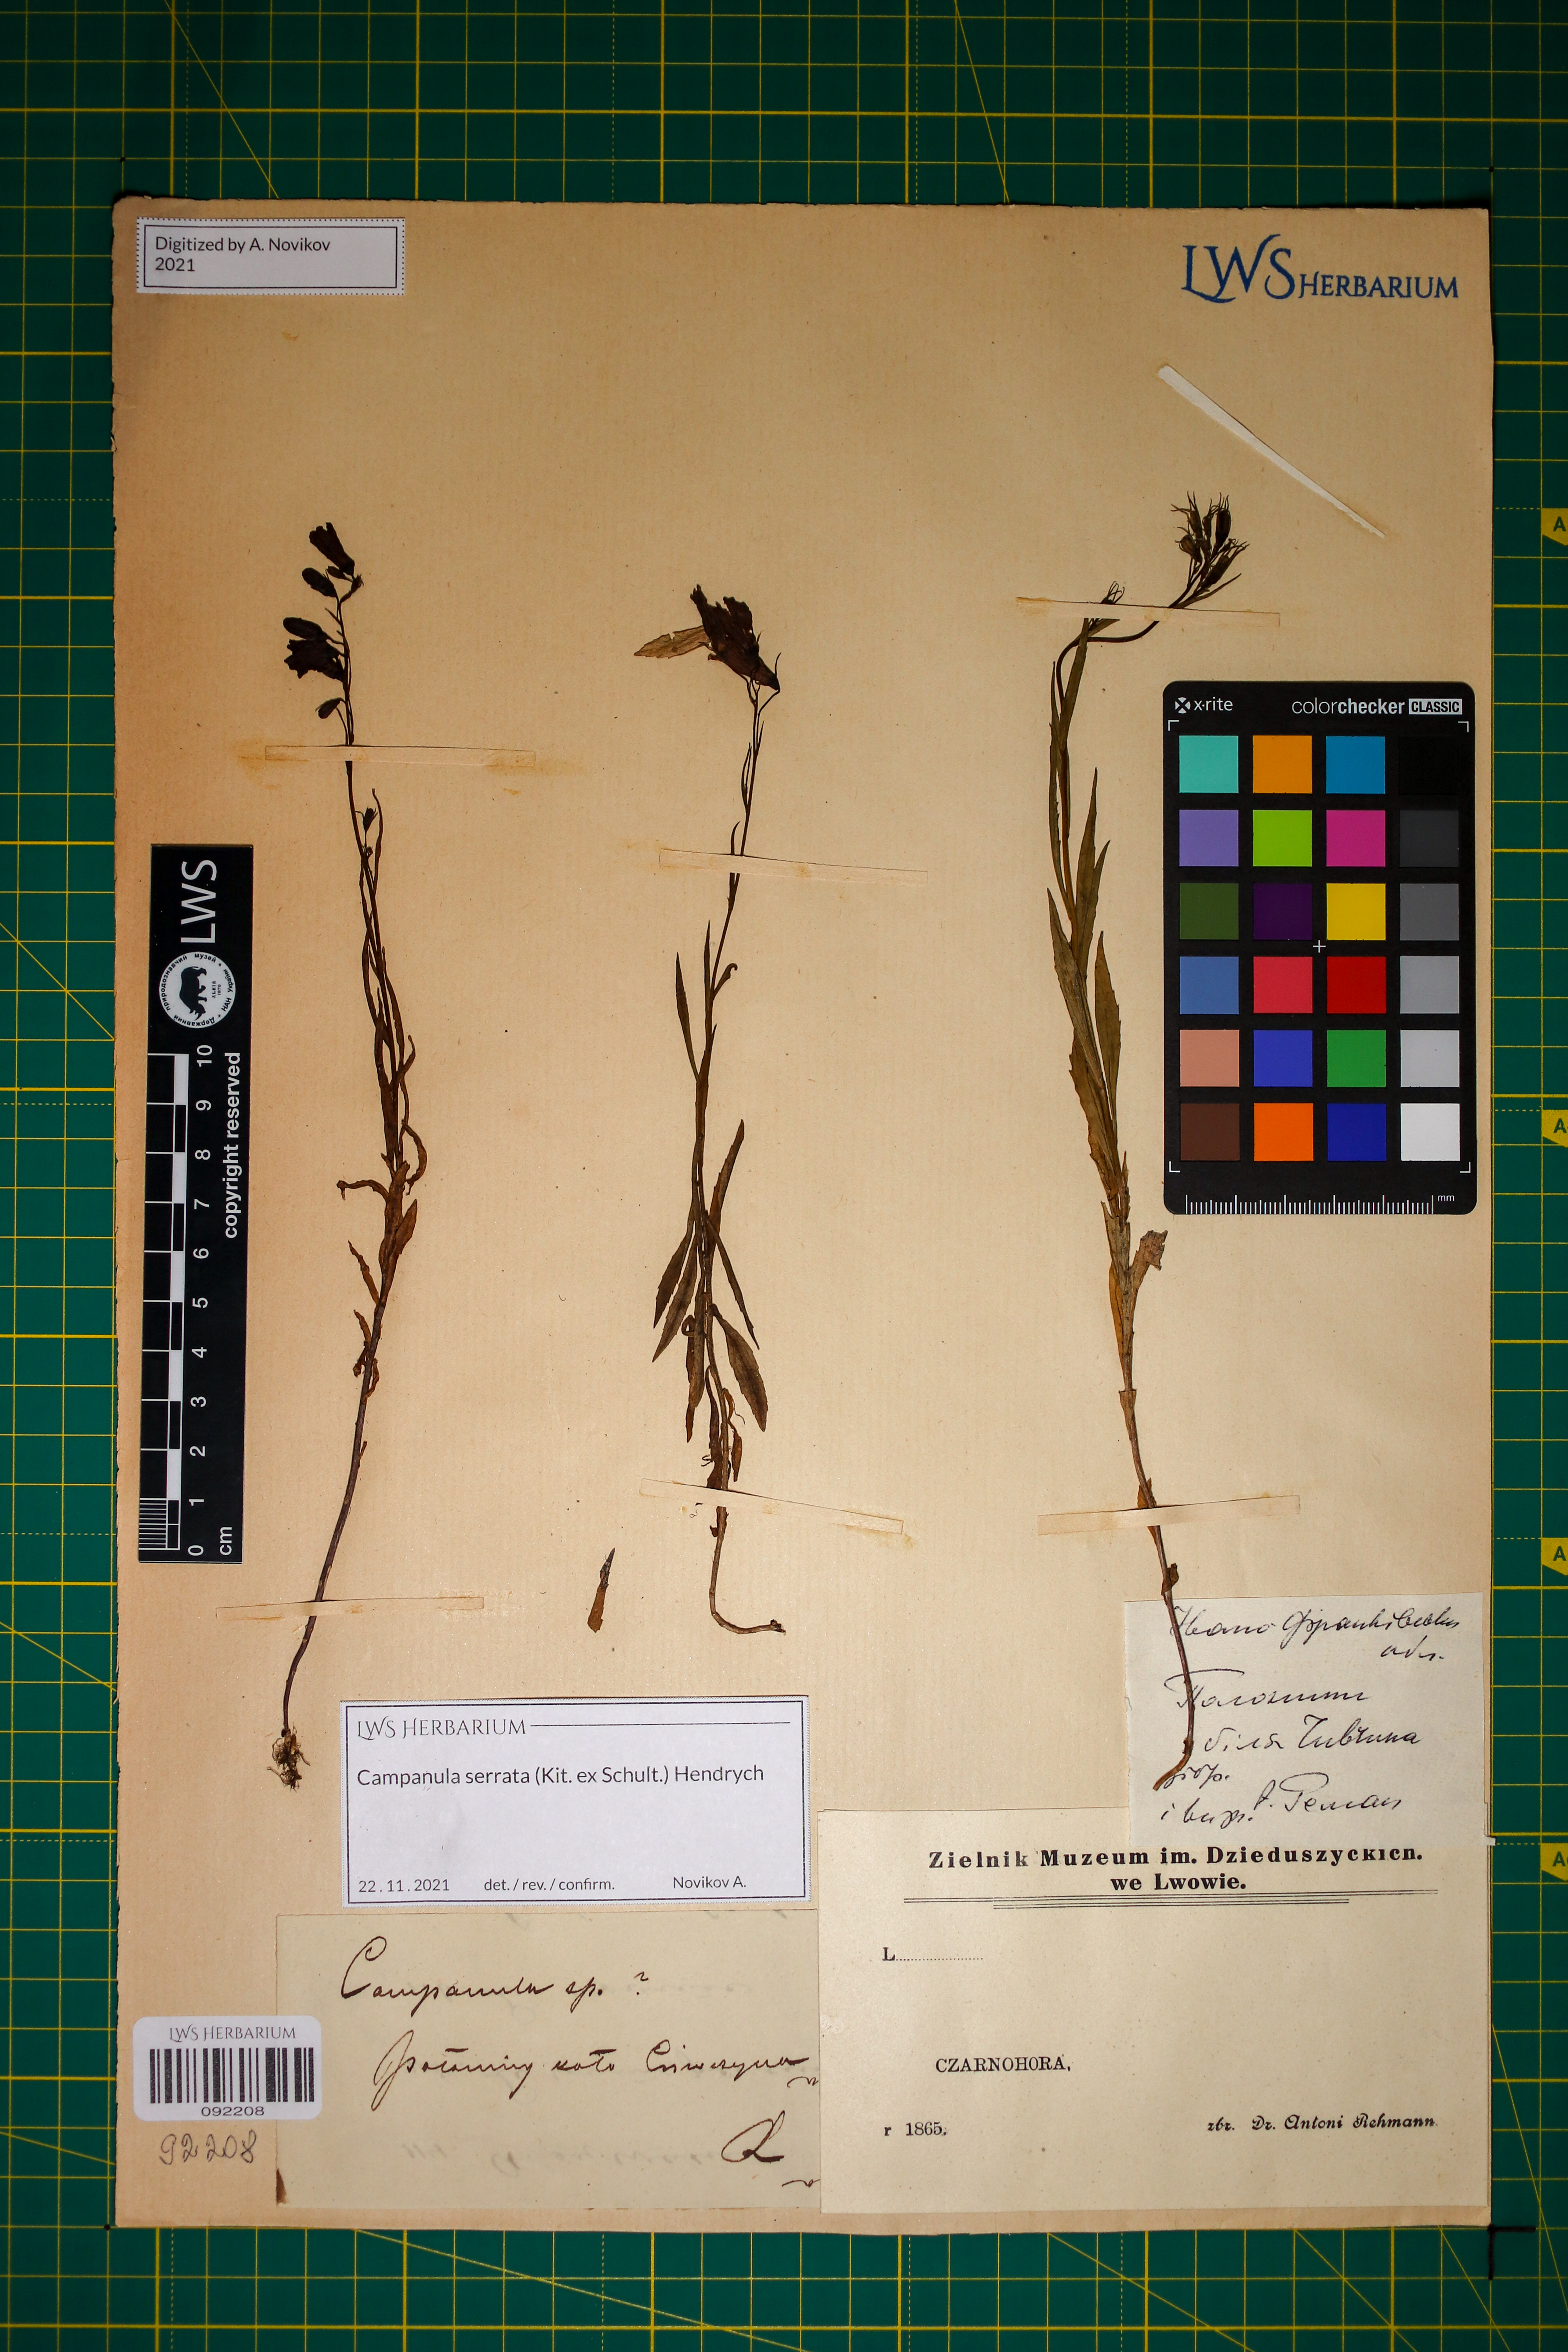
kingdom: Plantae
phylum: Tracheophyta
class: Magnoliopsida
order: Asterales
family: Campanulaceae
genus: Campanula
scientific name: Campanula serrata
